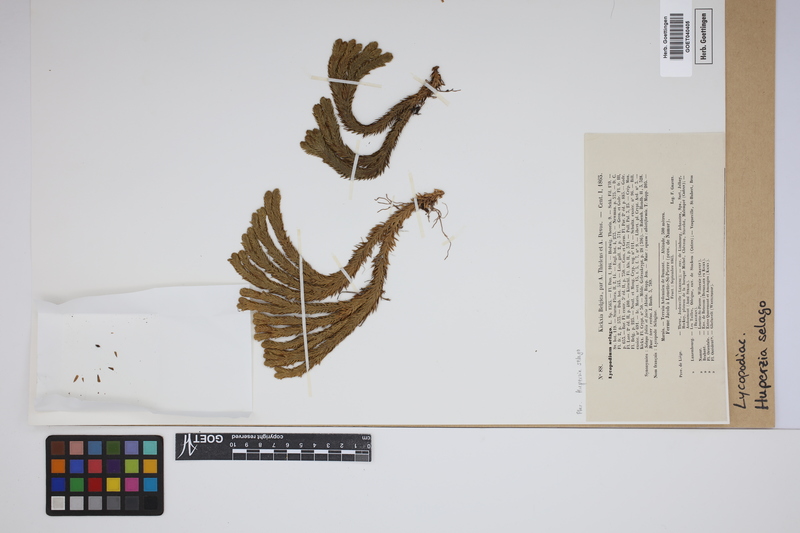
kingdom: Plantae
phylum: Tracheophyta
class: Lycopodiopsida
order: Lycopodiales
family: Lycopodiaceae
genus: Huperzia
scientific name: Huperzia selago
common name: Northern firmoss
